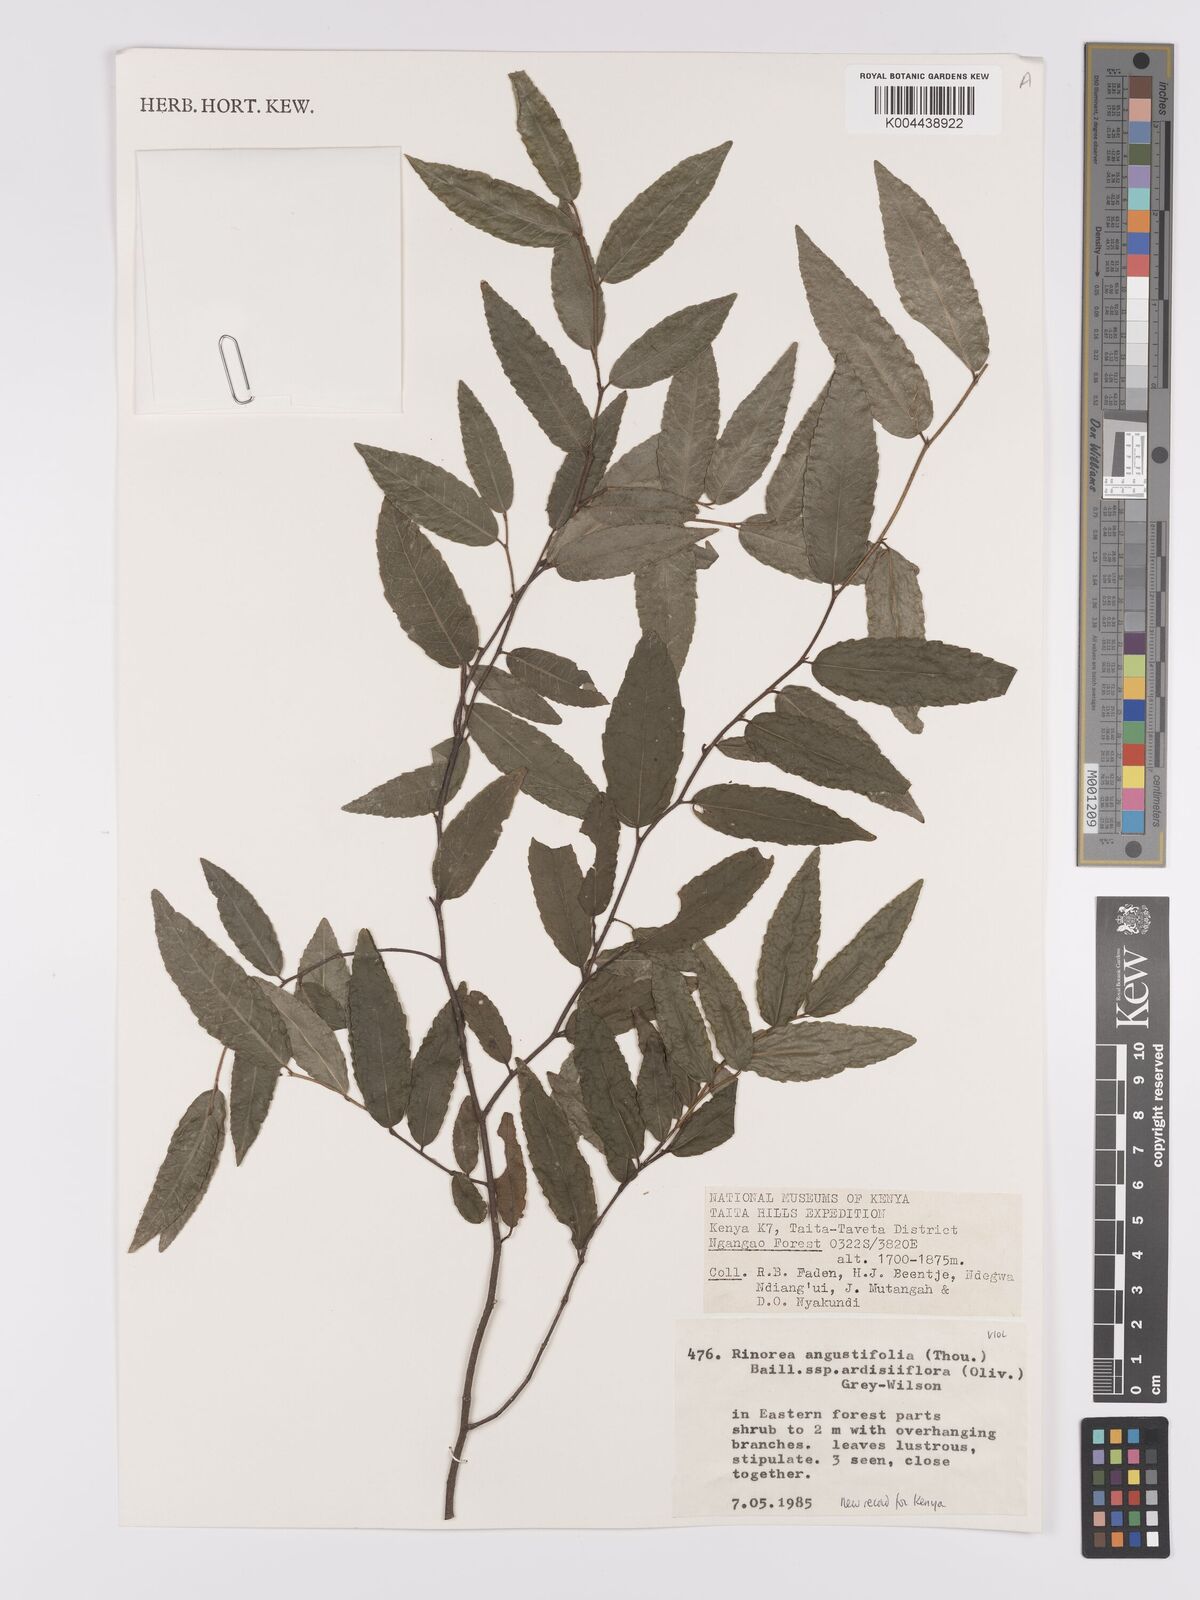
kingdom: Plantae
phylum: Tracheophyta
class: Magnoliopsida
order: Malpighiales
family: Violaceae
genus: Rinorea
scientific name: Rinorea angustifolia
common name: White violet-bush
